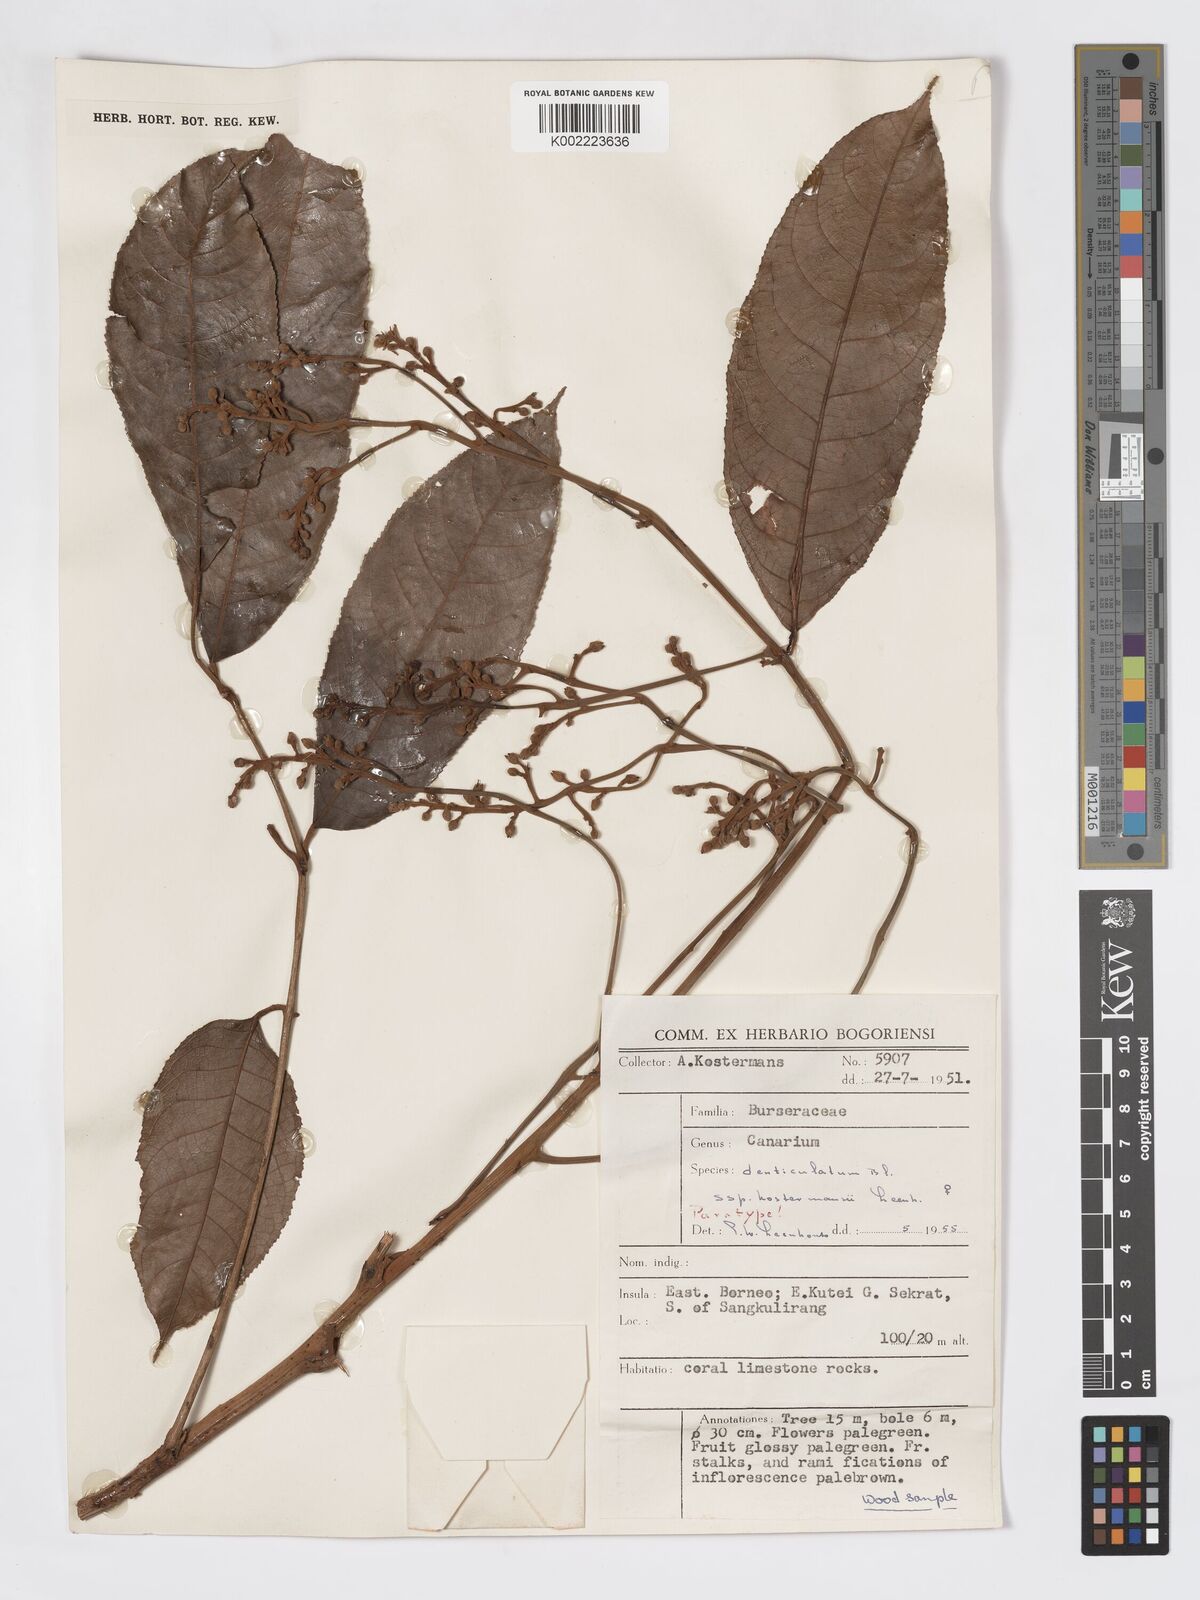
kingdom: Plantae
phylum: Tracheophyta
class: Magnoliopsida
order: Sapindales
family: Burseraceae
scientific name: Burseraceae
